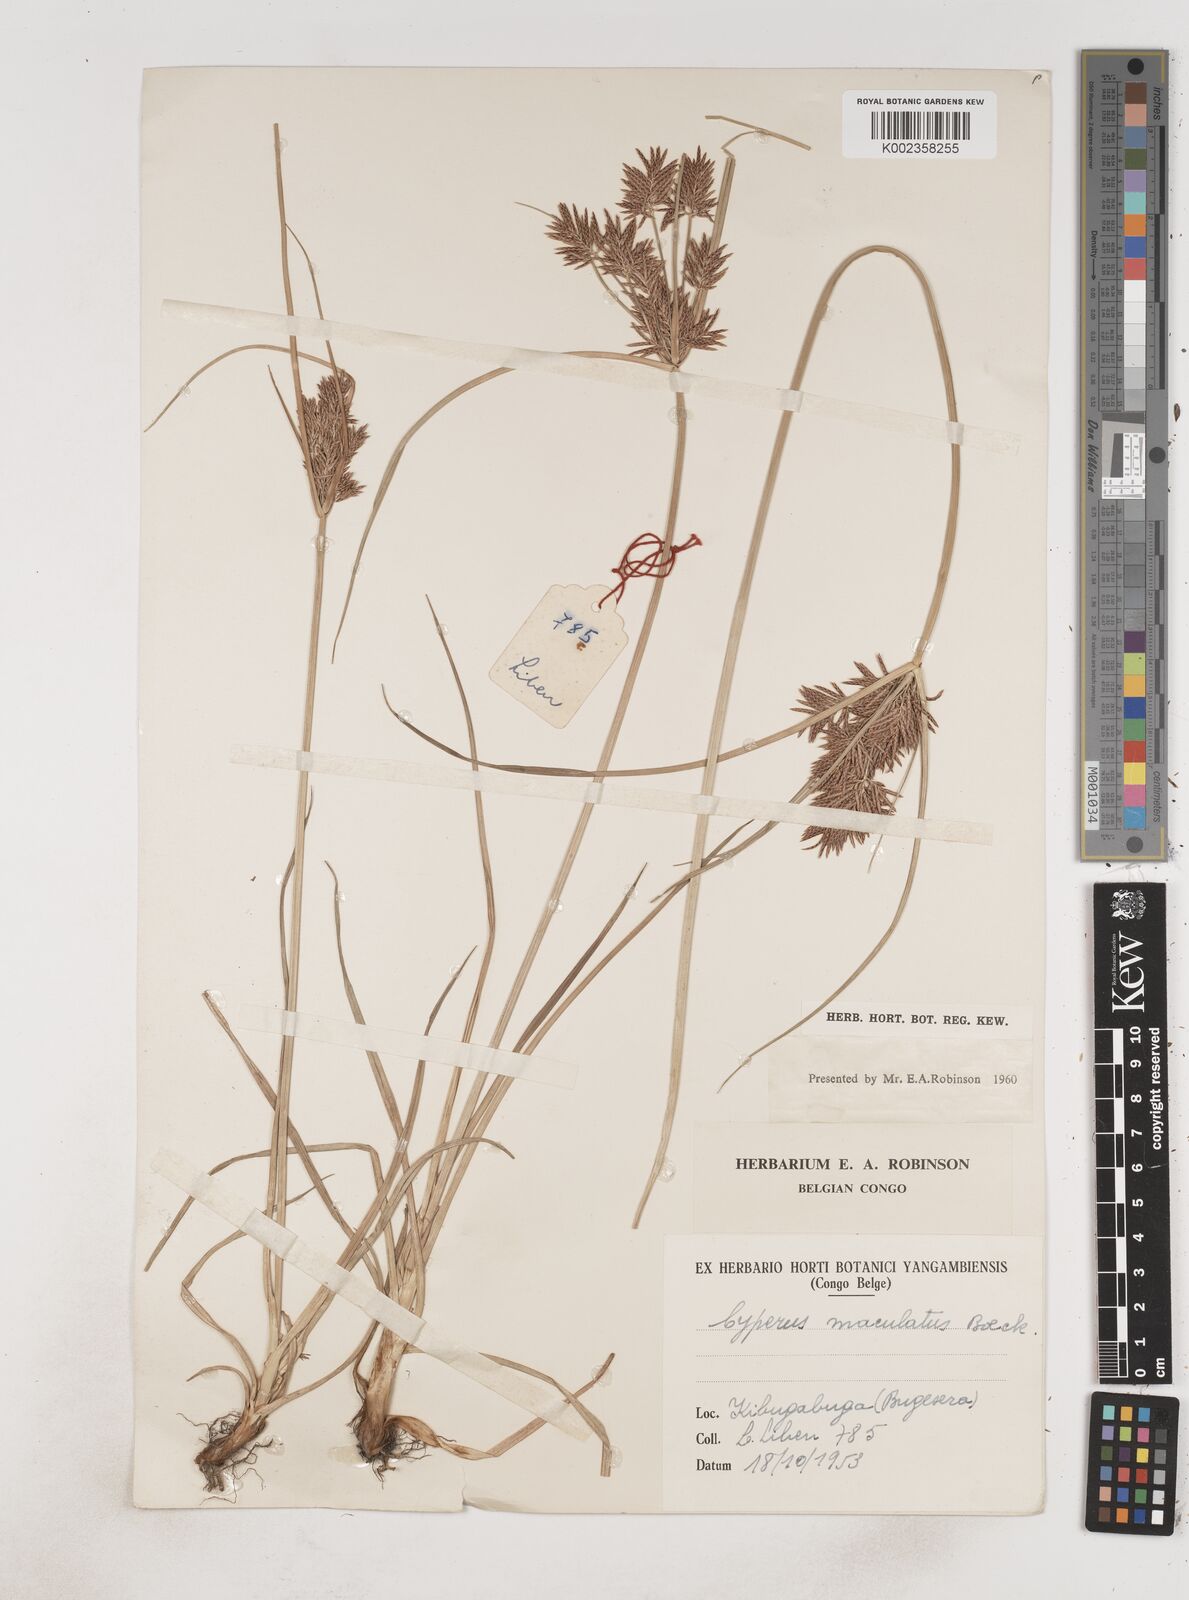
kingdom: Plantae
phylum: Tracheophyta
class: Liliopsida
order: Poales
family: Cyperaceae
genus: Cyperus
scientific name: Cyperus maculatus
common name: Maculated sedge
